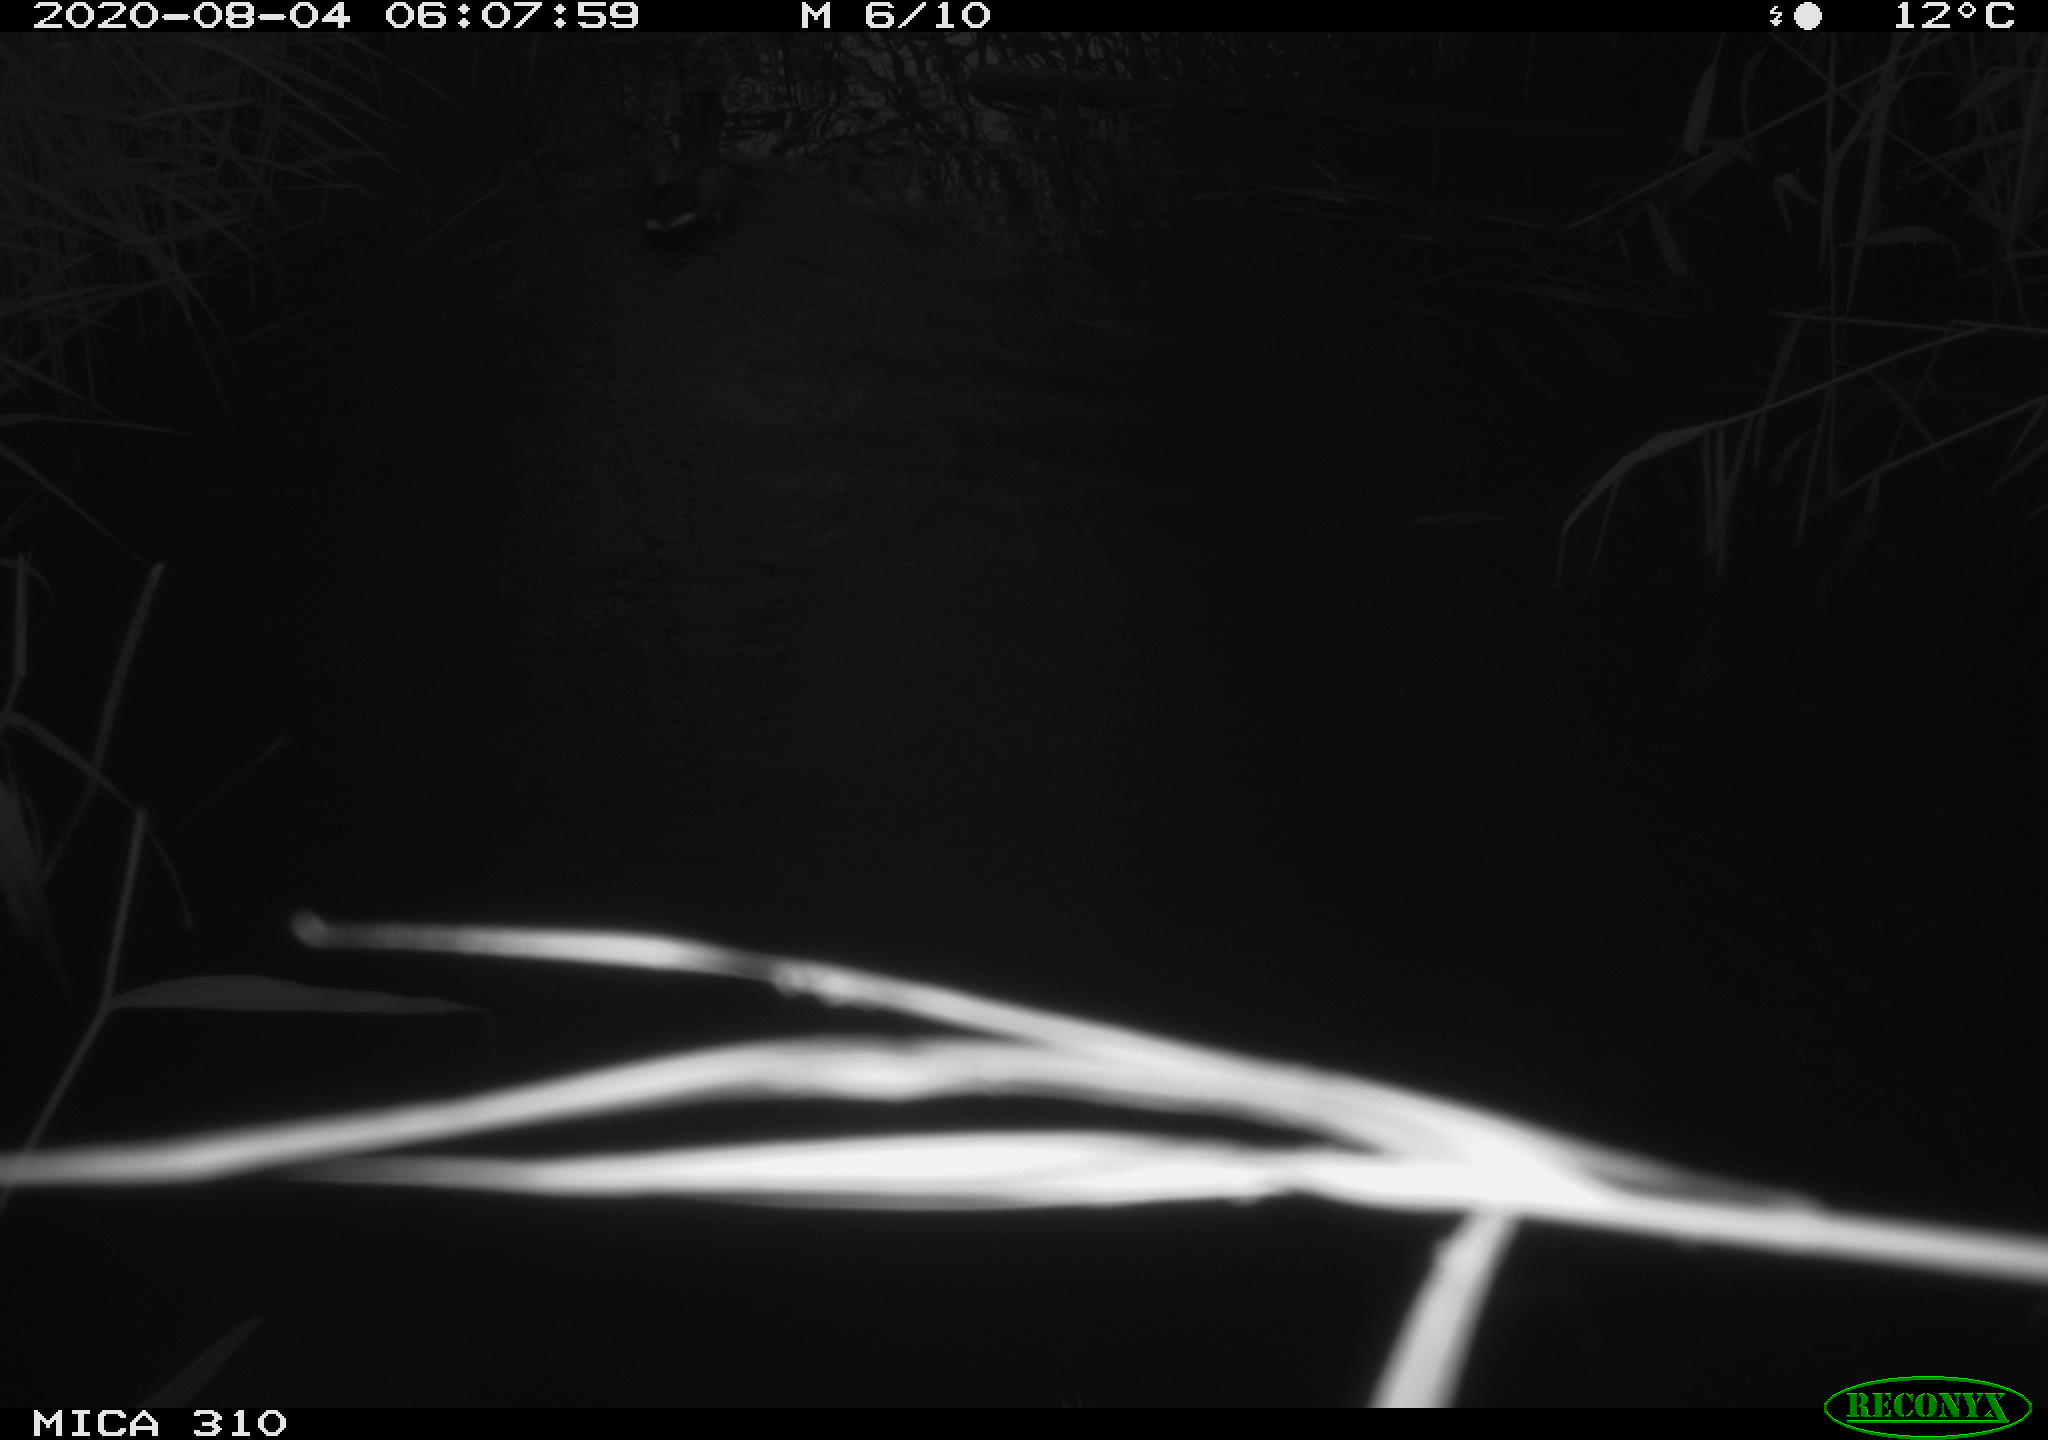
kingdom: Animalia
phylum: Chordata
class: Aves
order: Anseriformes
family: Anatidae
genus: Anas
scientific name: Anas platyrhynchos
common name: Mallard
